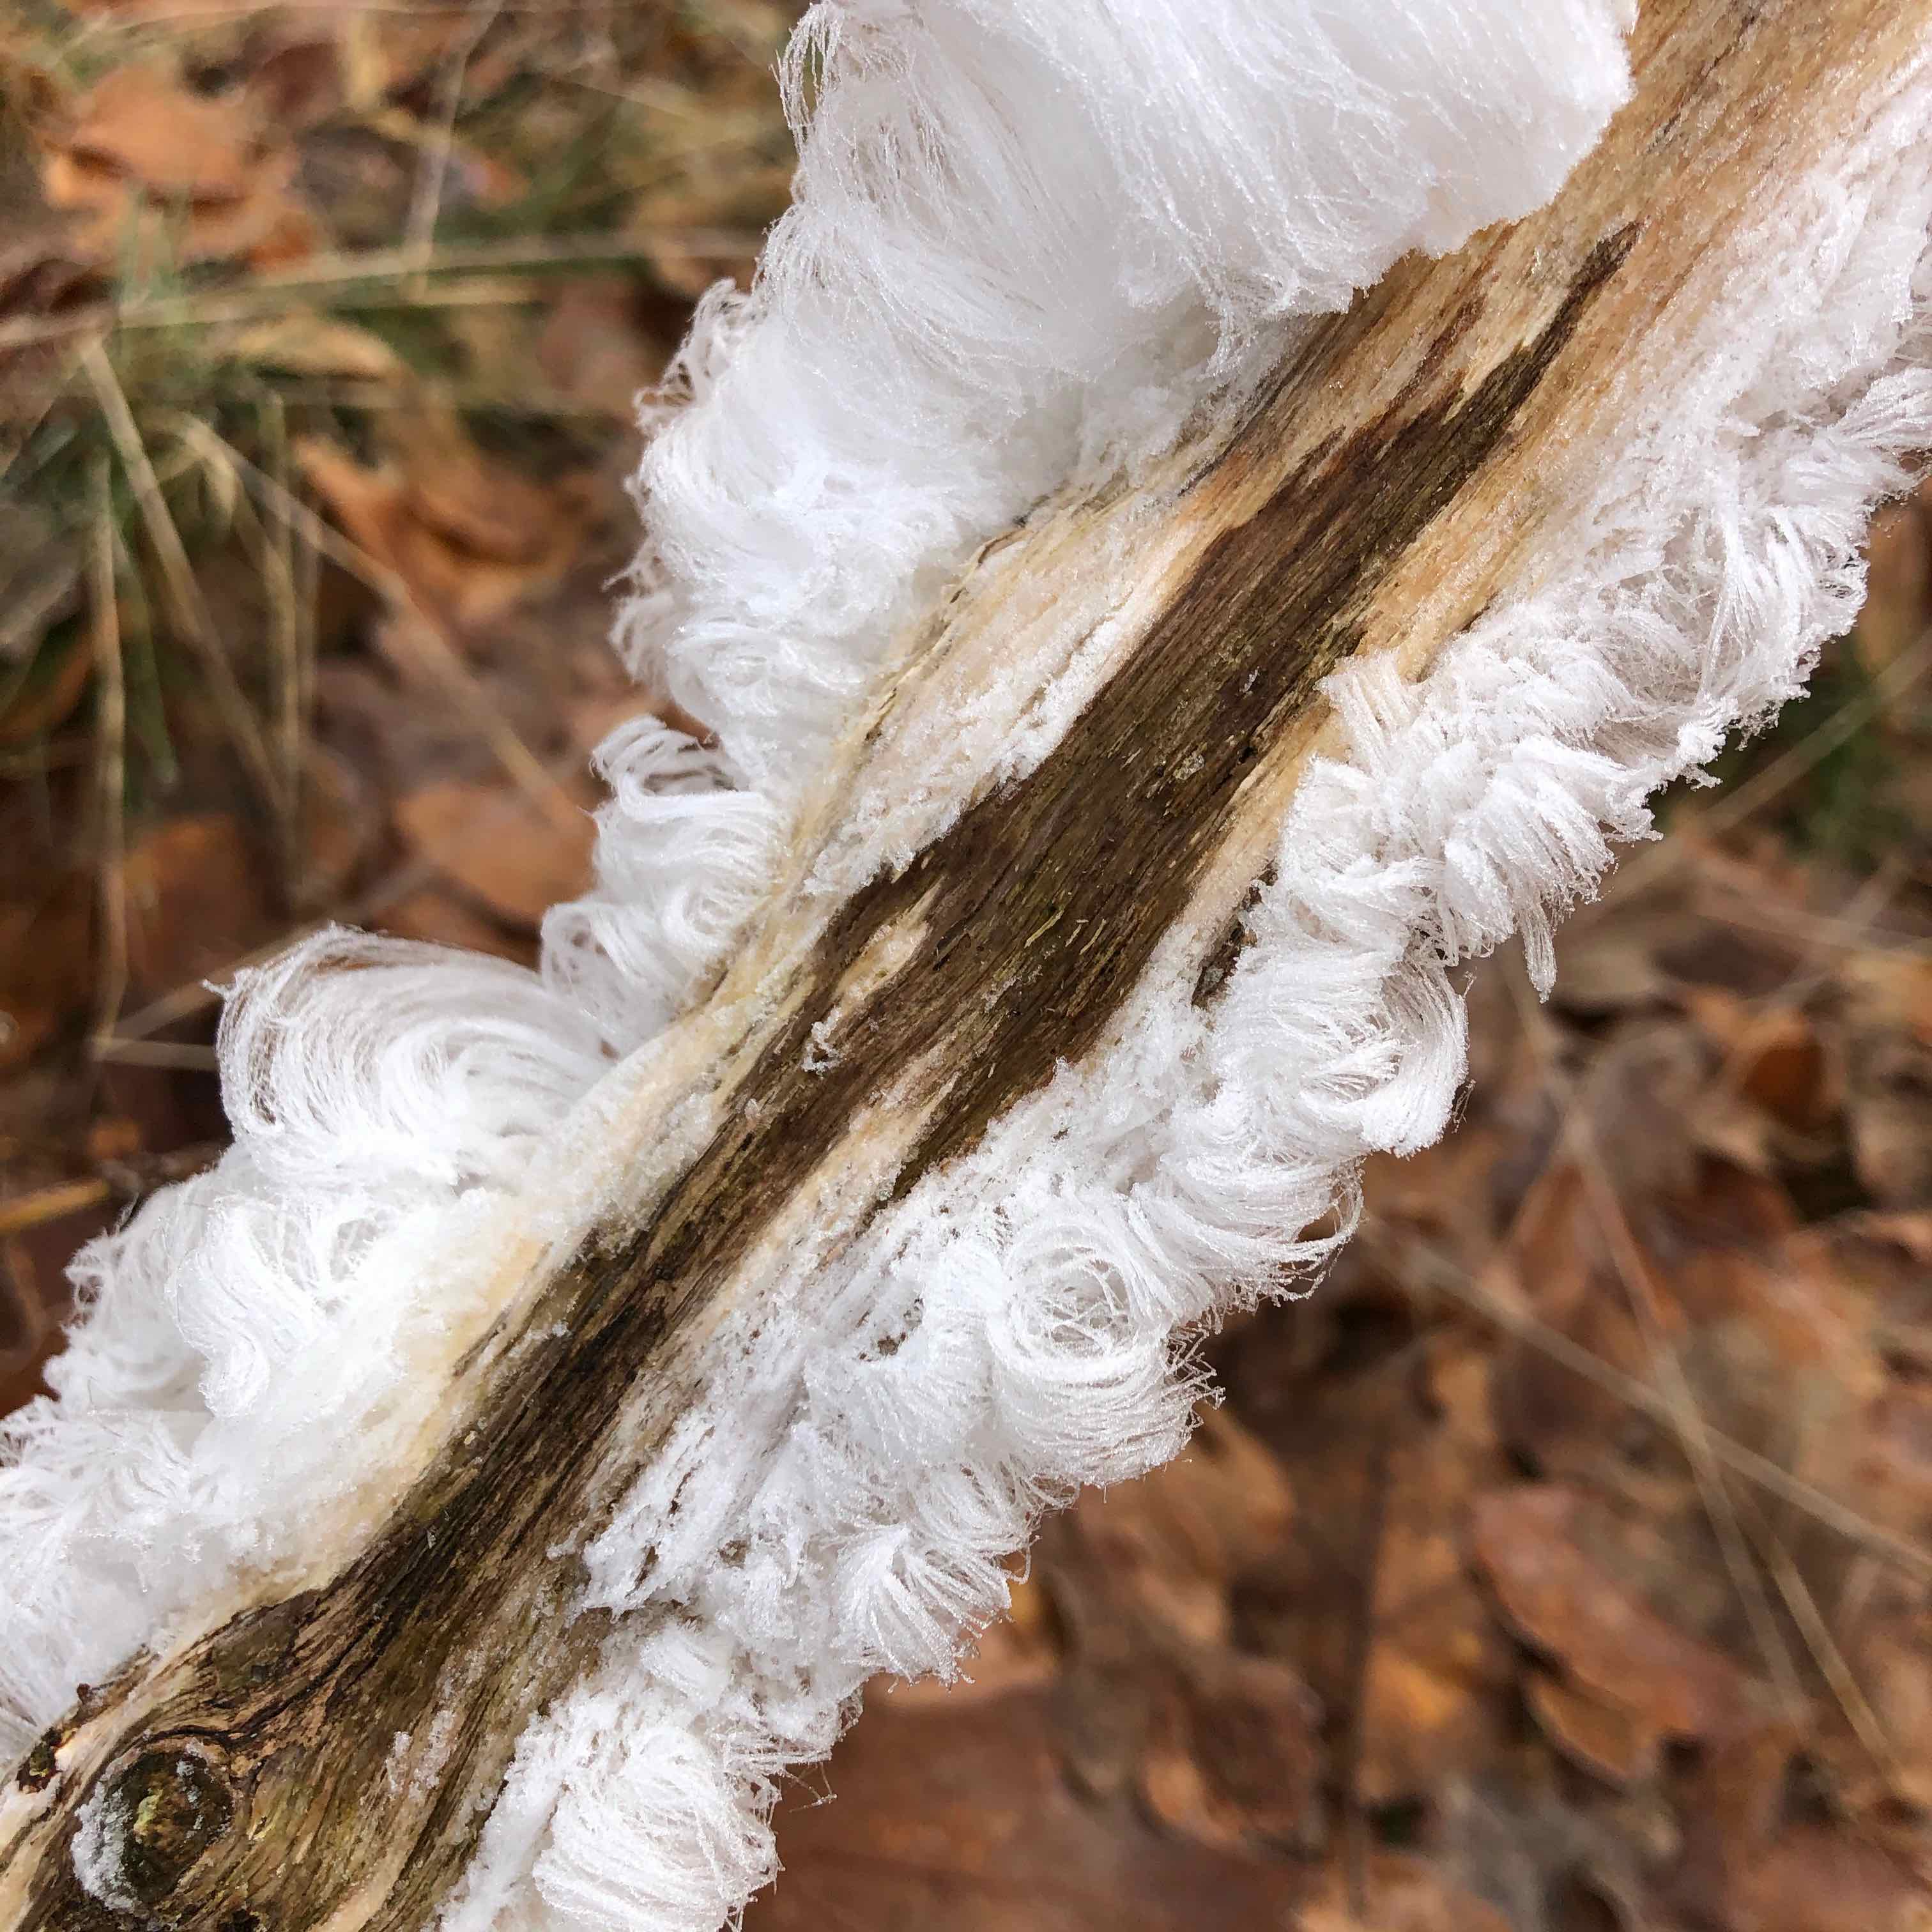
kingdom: Fungi
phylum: Basidiomycota
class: Tremellomycetes
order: Tremellales
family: Exidiaceae
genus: Exidiopsis
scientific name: Exidiopsis effusa
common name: smuk bævrehinde
